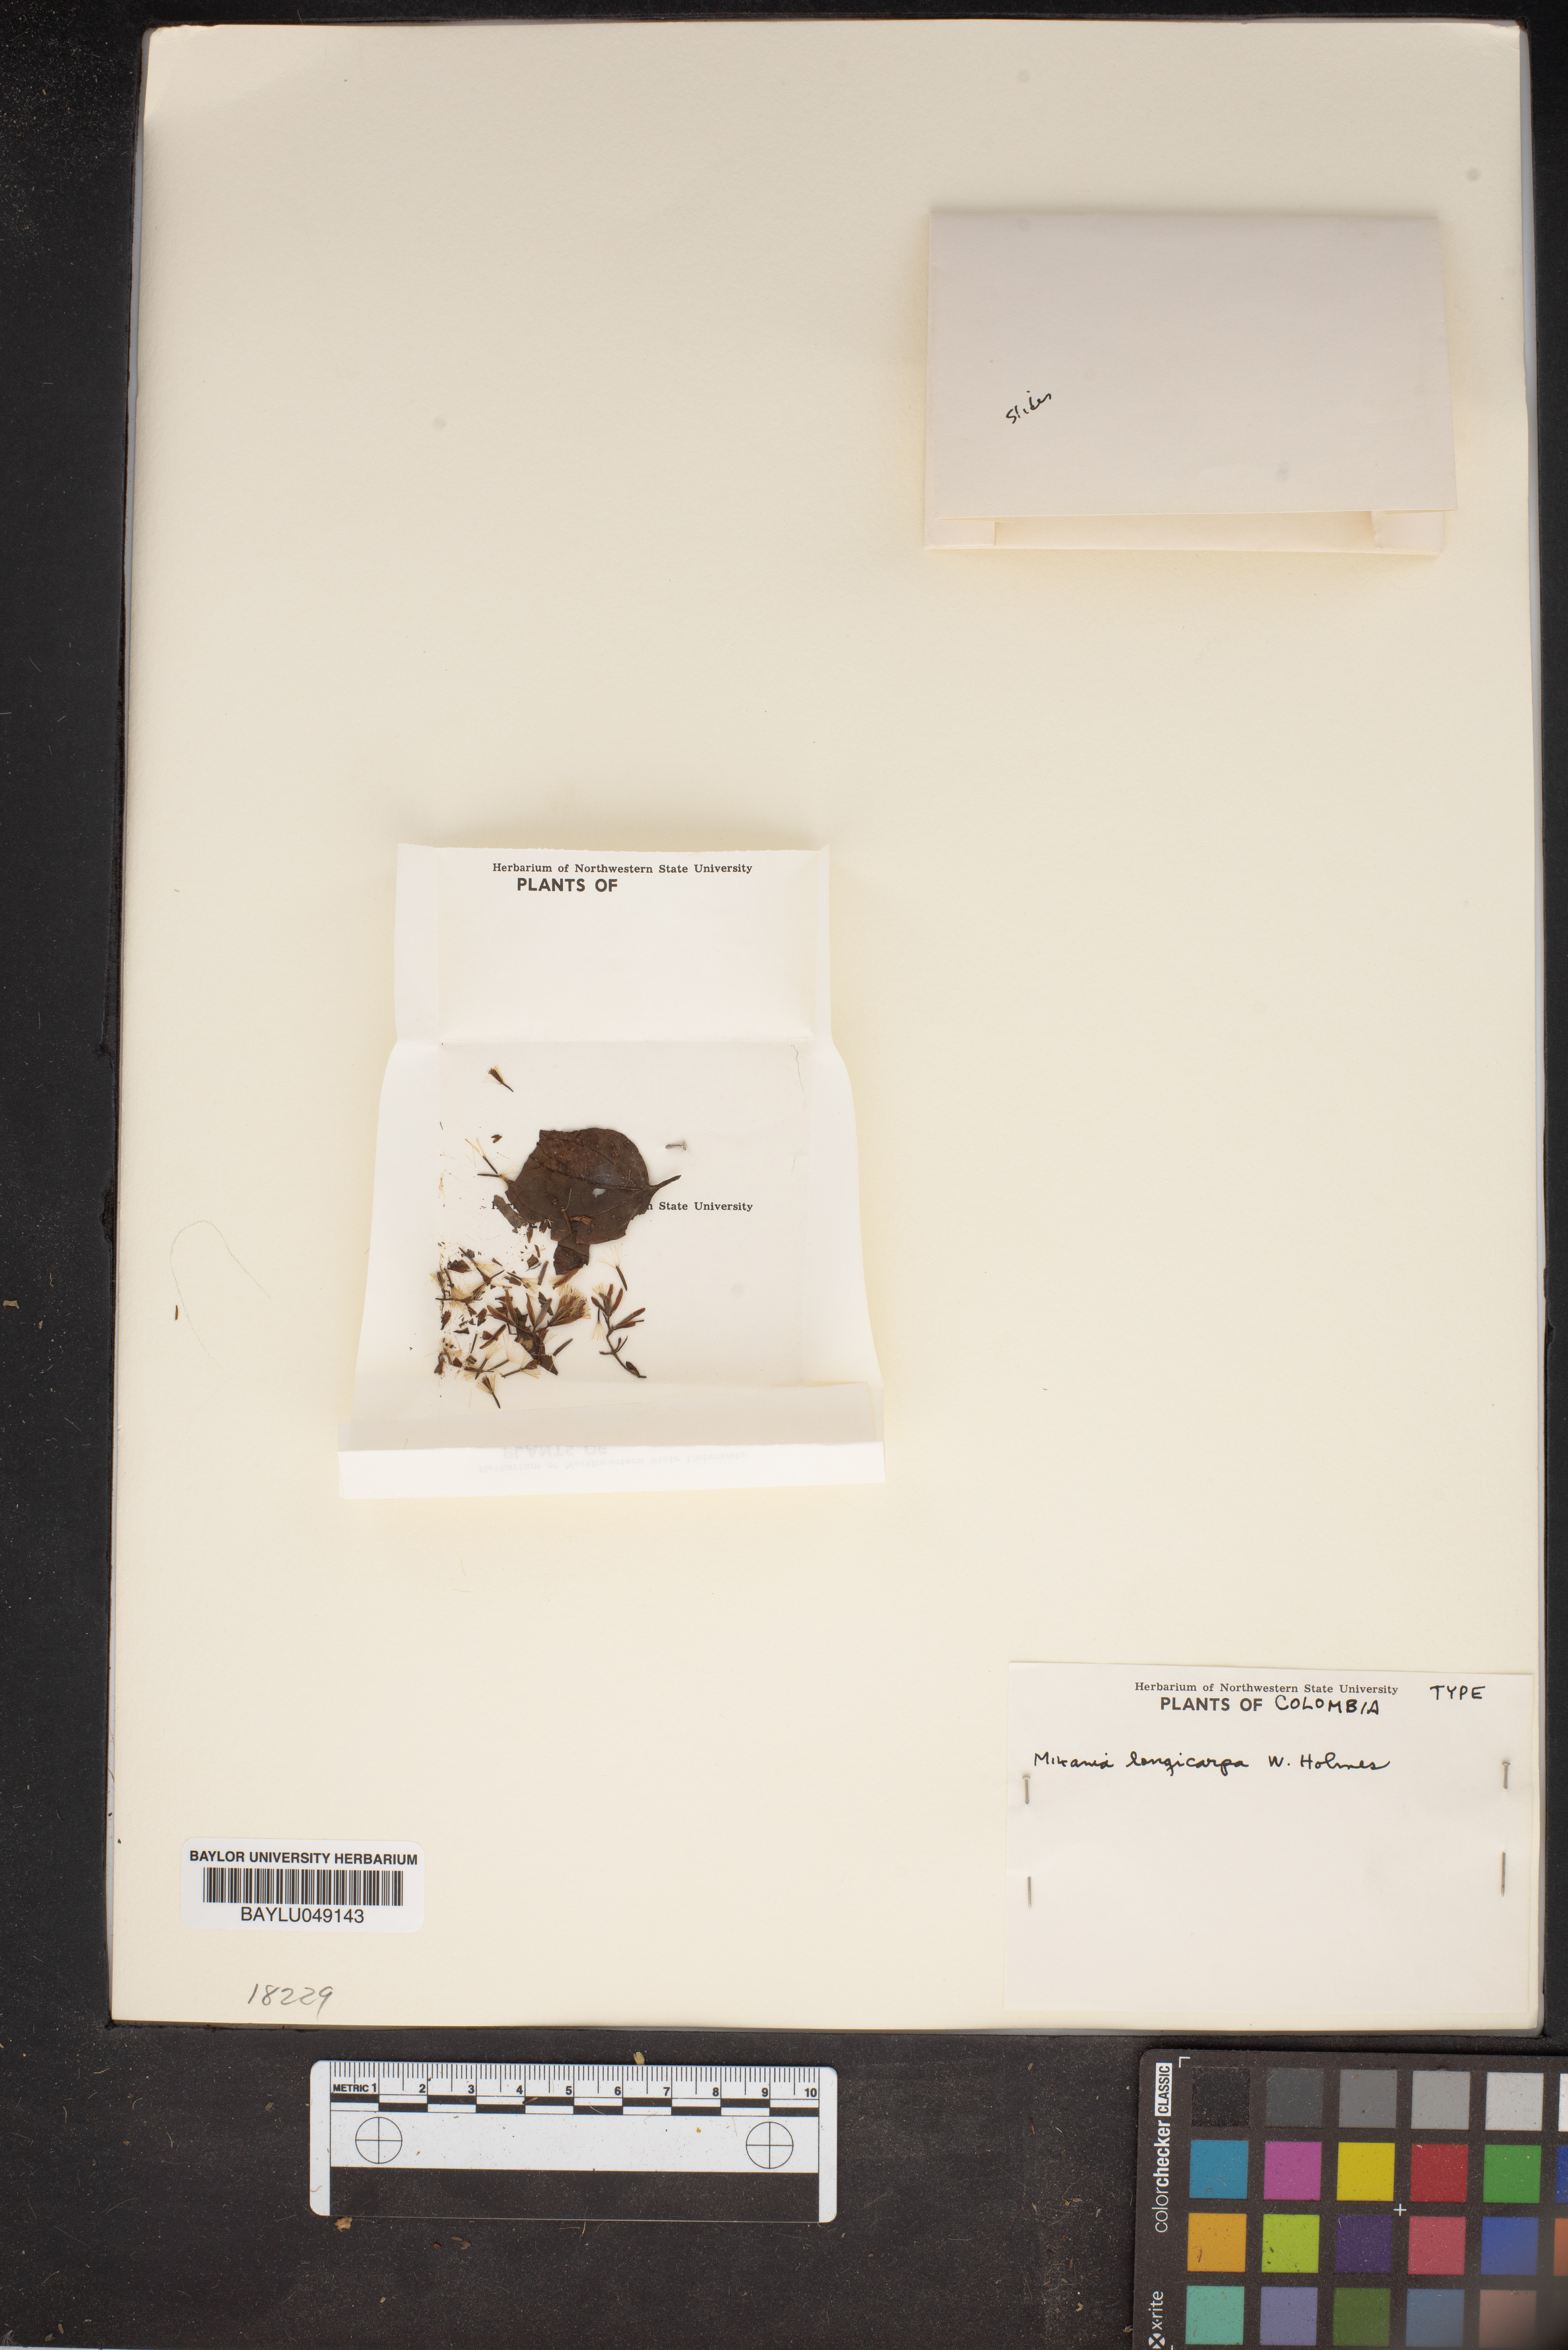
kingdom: Plantae
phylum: Tracheophyta
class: Magnoliopsida
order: Asterales
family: Asteraceae
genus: Mikania
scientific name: Mikania longicarpa
